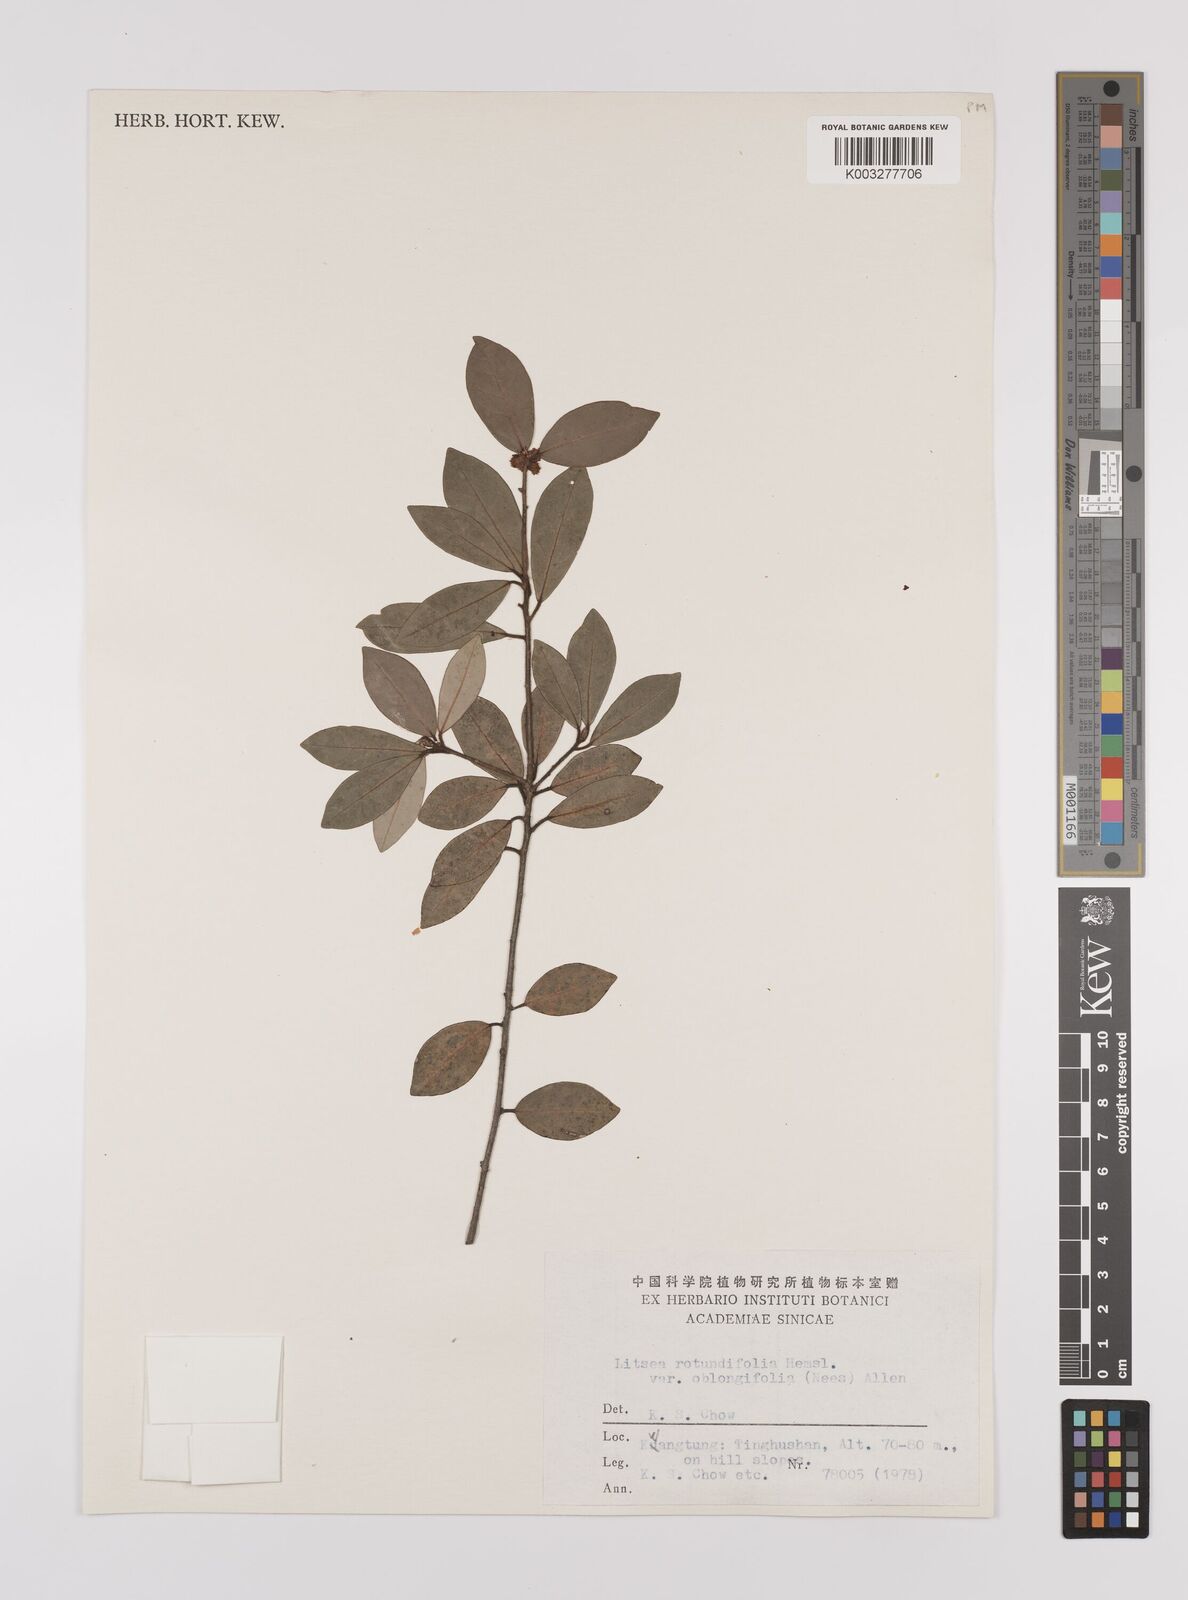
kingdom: Plantae
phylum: Tracheophyta
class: Magnoliopsida
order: Laurales
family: Lauraceae
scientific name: Lauraceae
